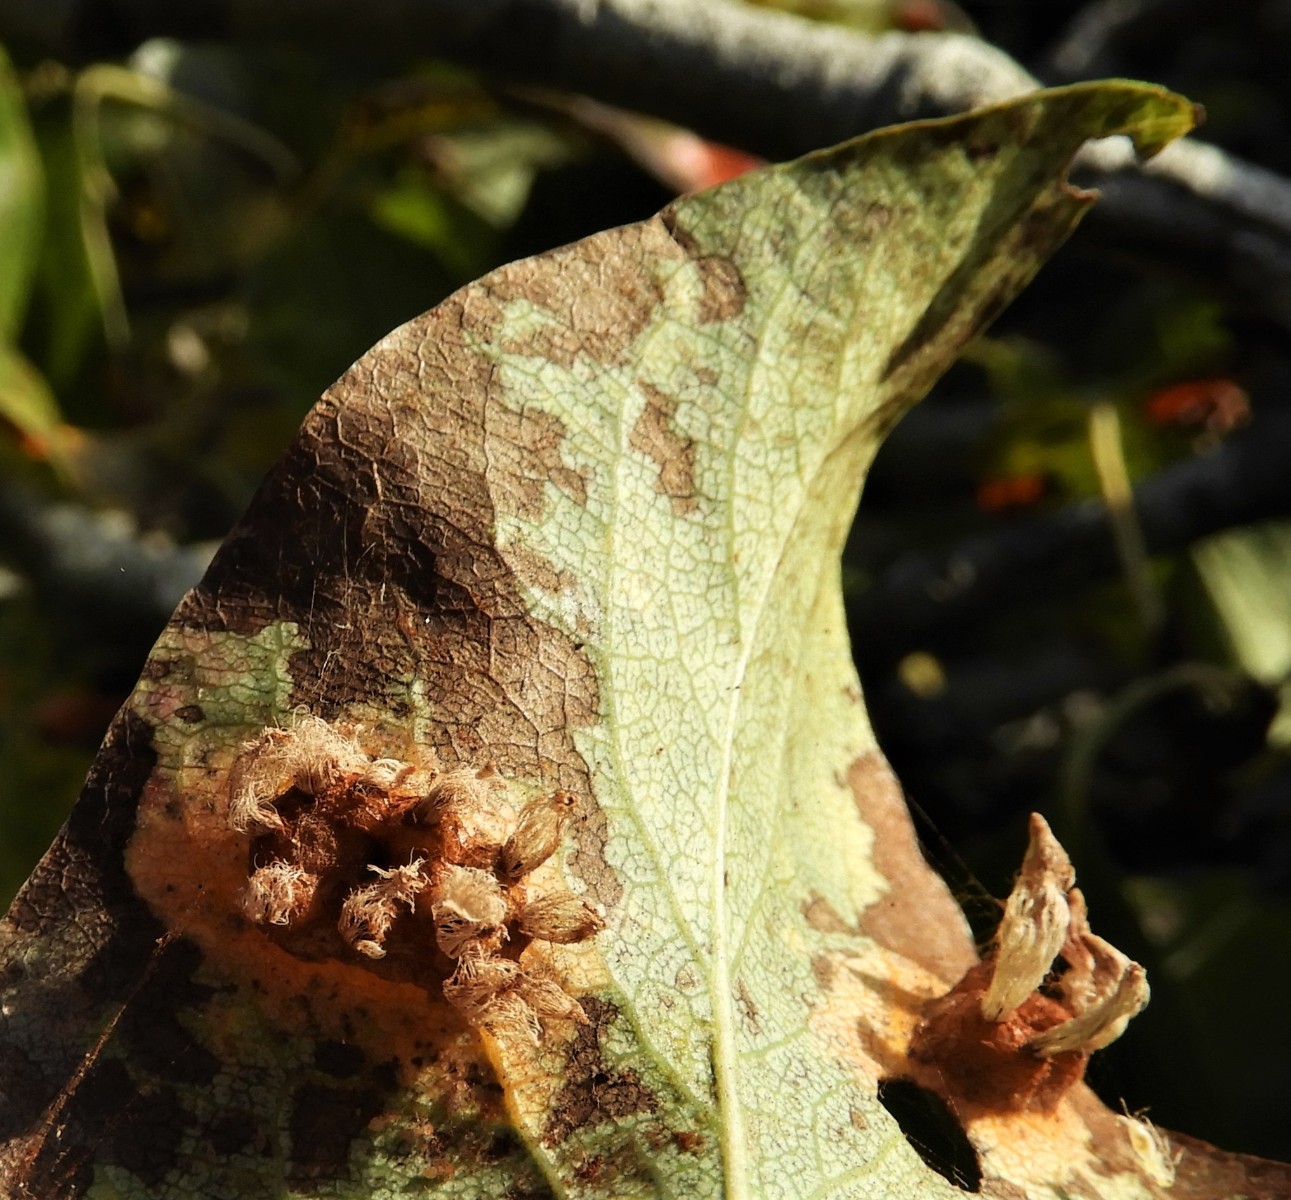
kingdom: Fungi
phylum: Basidiomycota
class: Pucciniomycetes
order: Pucciniales
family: Gymnosporangiaceae
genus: Gymnosporangium
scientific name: Gymnosporangium sabinae
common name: pæregitter-bævrerust
